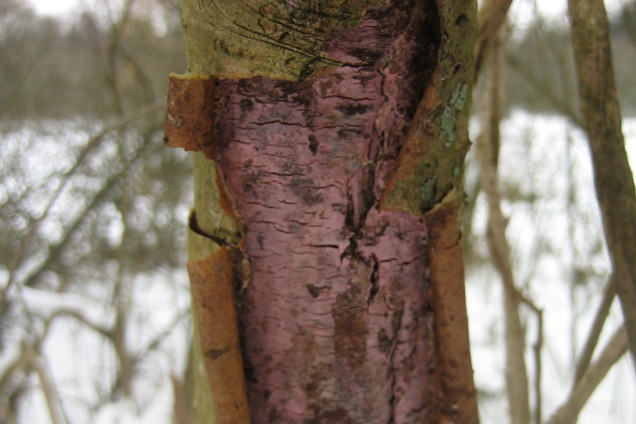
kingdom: Fungi
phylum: Basidiomycota
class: Agaricomycetes
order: Cantharellales
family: Tulasnellaceae
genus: Tulasnella
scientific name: Tulasnella violea
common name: violet ballonhinde
